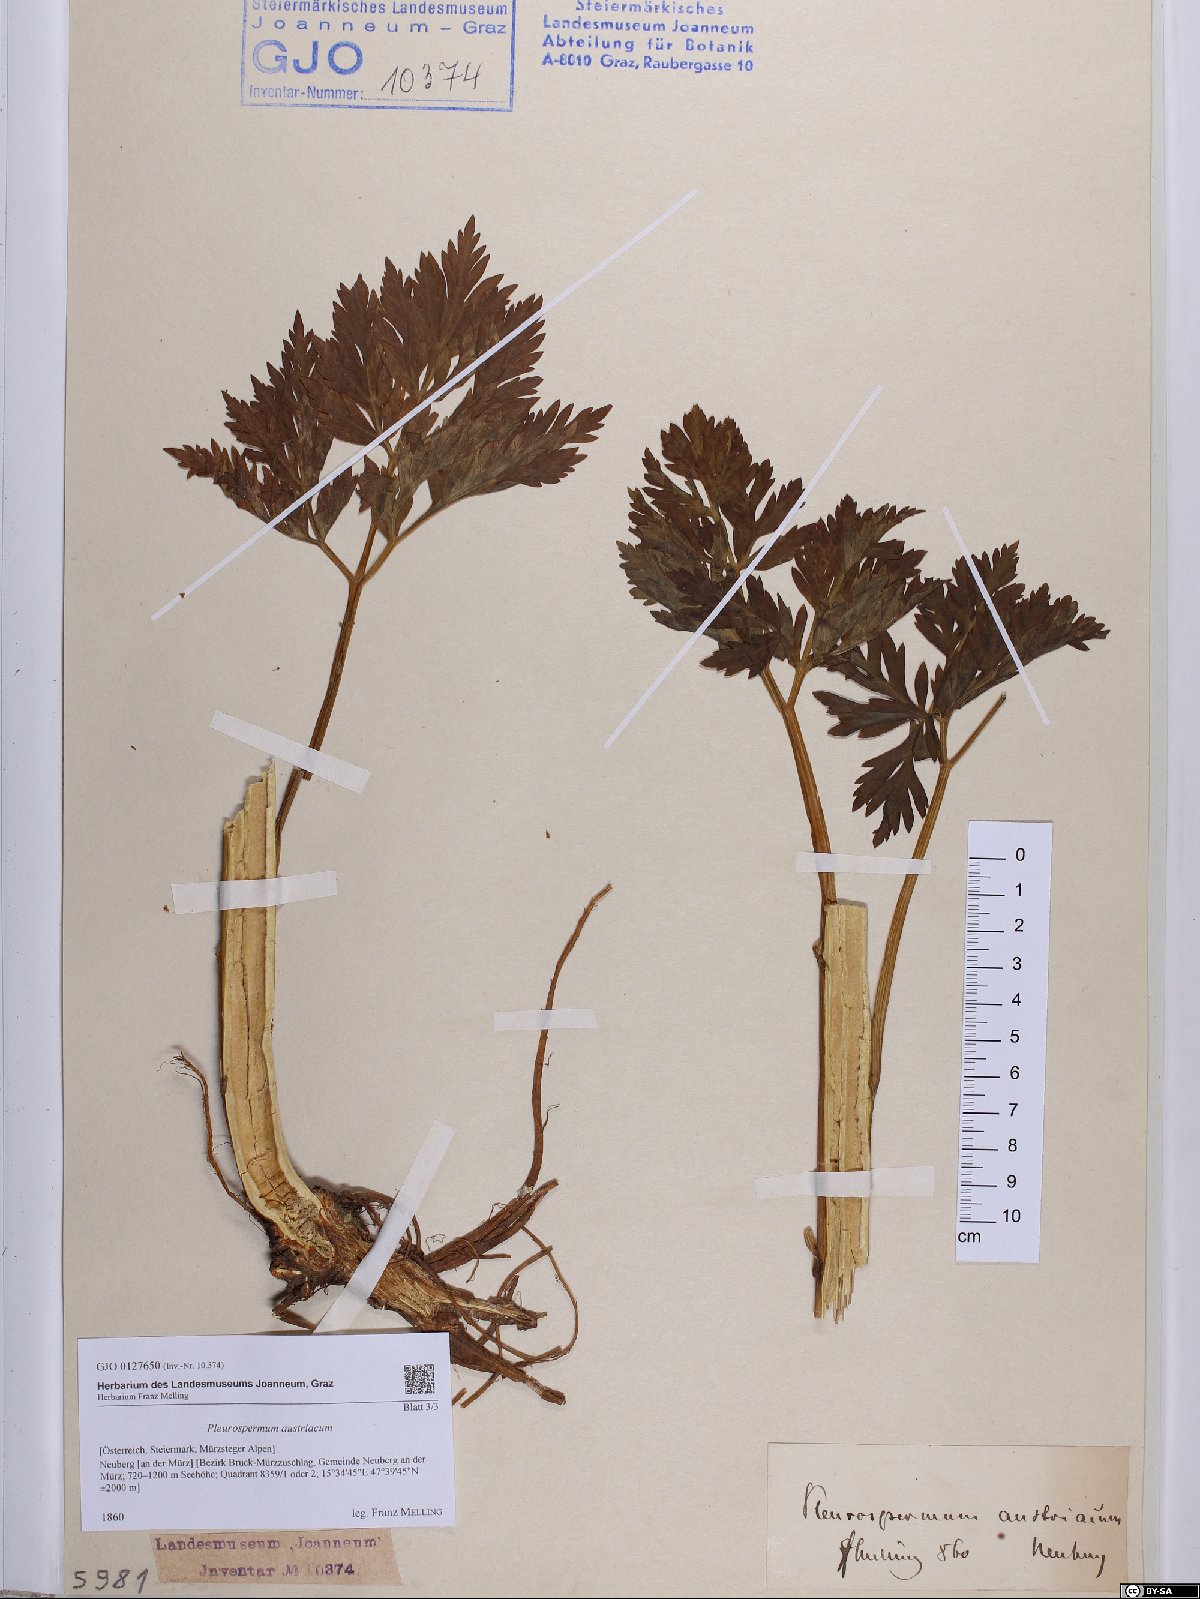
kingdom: Plantae
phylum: Tracheophyta
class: Magnoliopsida
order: Apiales
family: Apiaceae
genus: Pleurospermum
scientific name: Pleurospermum austriacum
